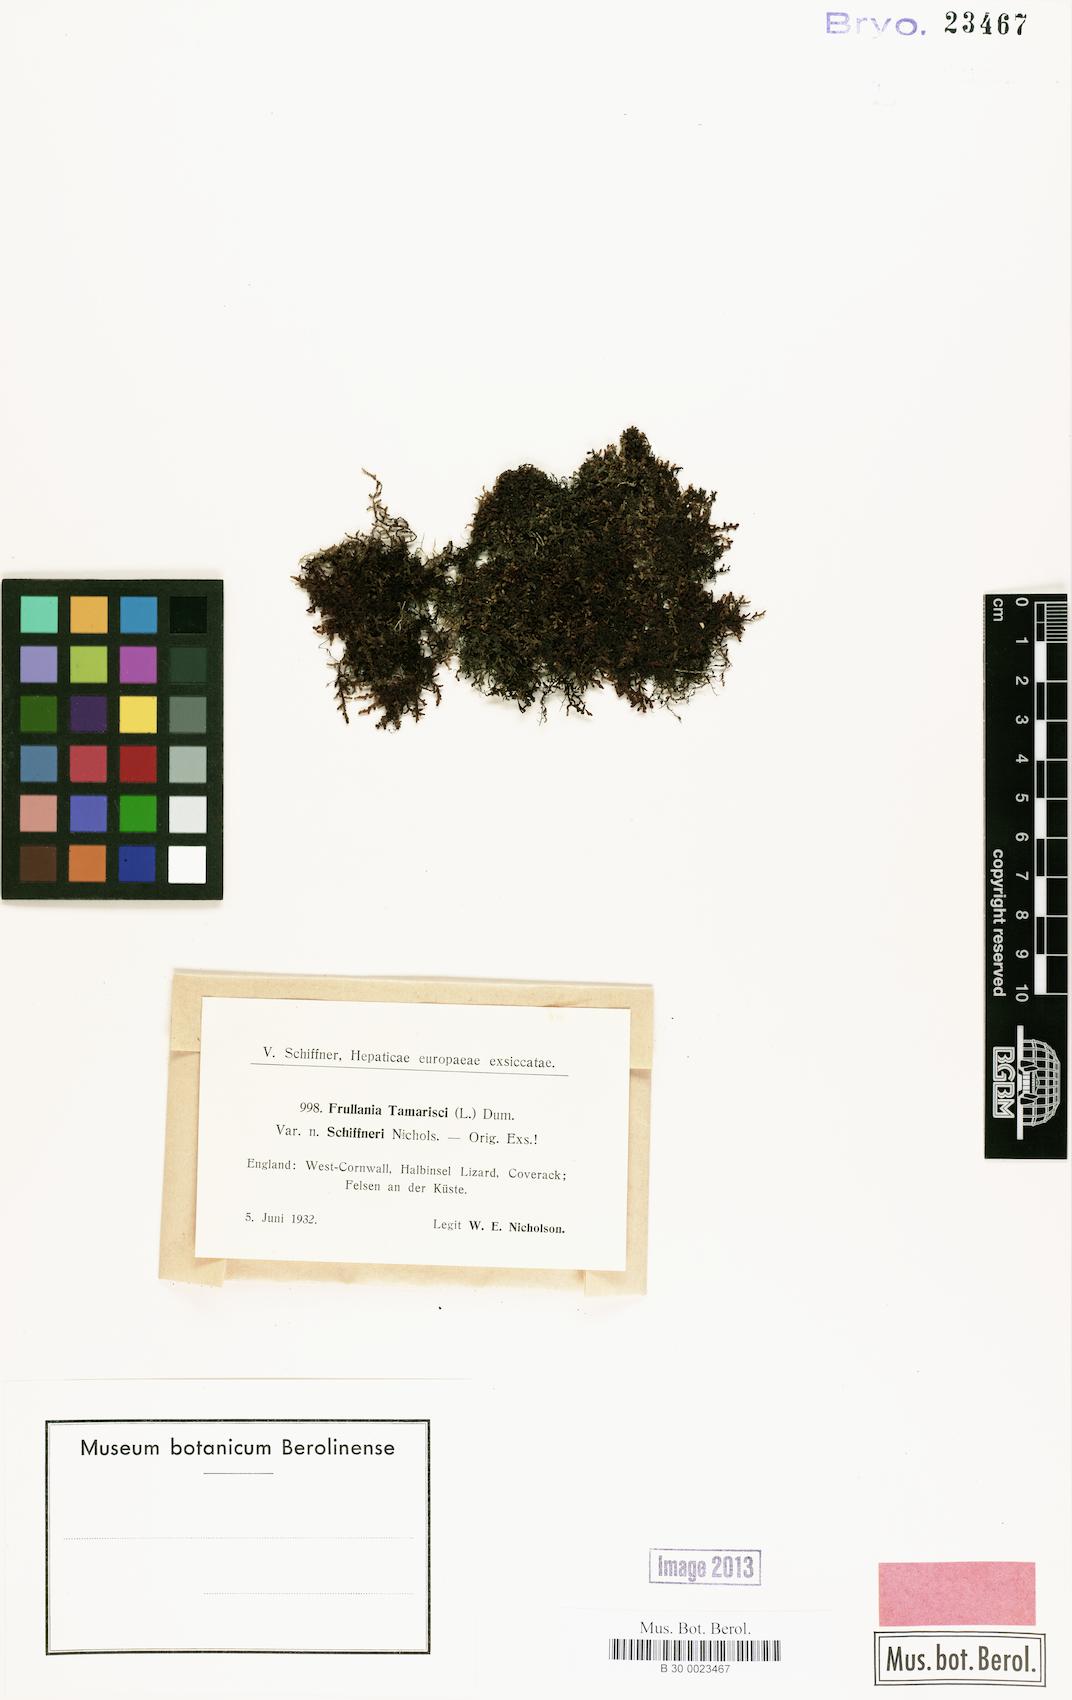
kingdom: Plantae
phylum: Marchantiophyta
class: Jungermanniopsida
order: Porellales
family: Frullaniaceae
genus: Frullania
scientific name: Frullania tamarisci
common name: Tamarisk scalewort
